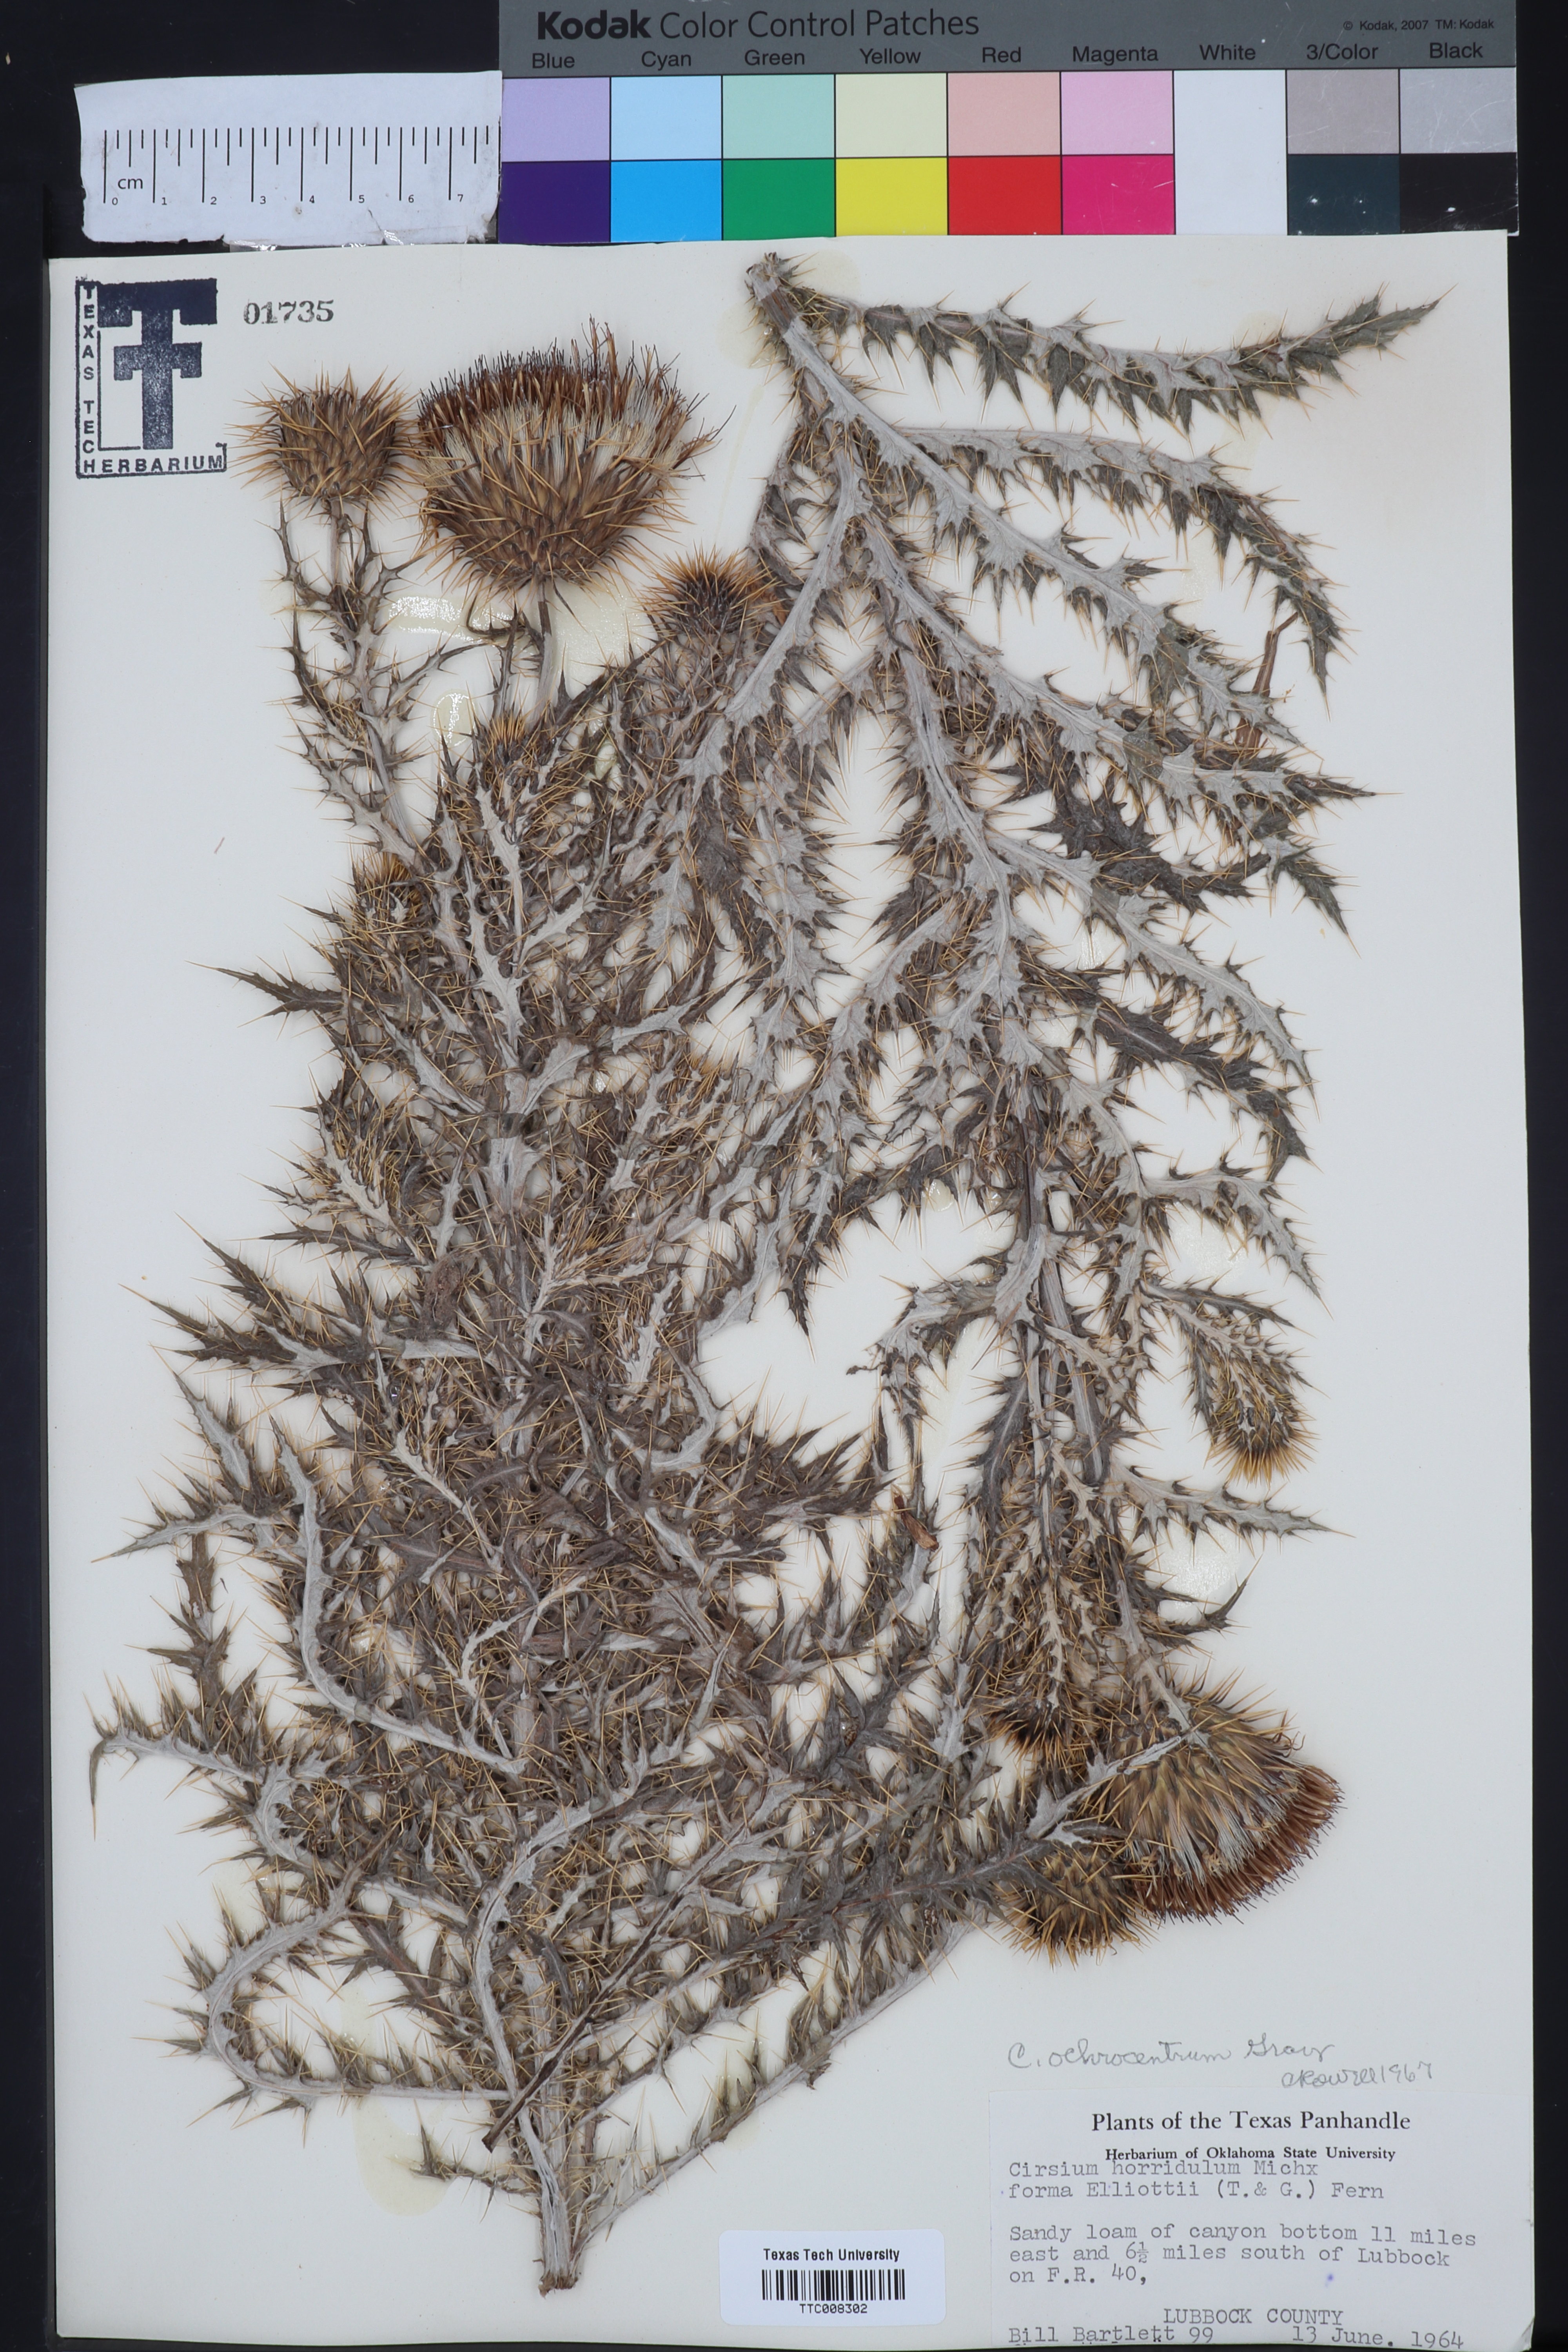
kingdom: Plantae
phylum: Tracheophyta
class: Magnoliopsida
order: Asterales
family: Asteraceae
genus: Cirsium
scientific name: Cirsium ochrocentrum
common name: Yellow-spine thistle
